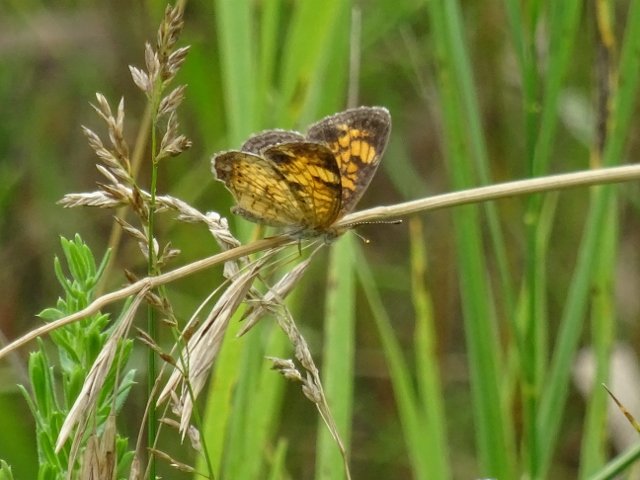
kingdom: Animalia
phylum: Arthropoda
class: Insecta
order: Lepidoptera
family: Nymphalidae
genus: Phyciodes
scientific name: Phyciodes tharos
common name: Northern Crescent
